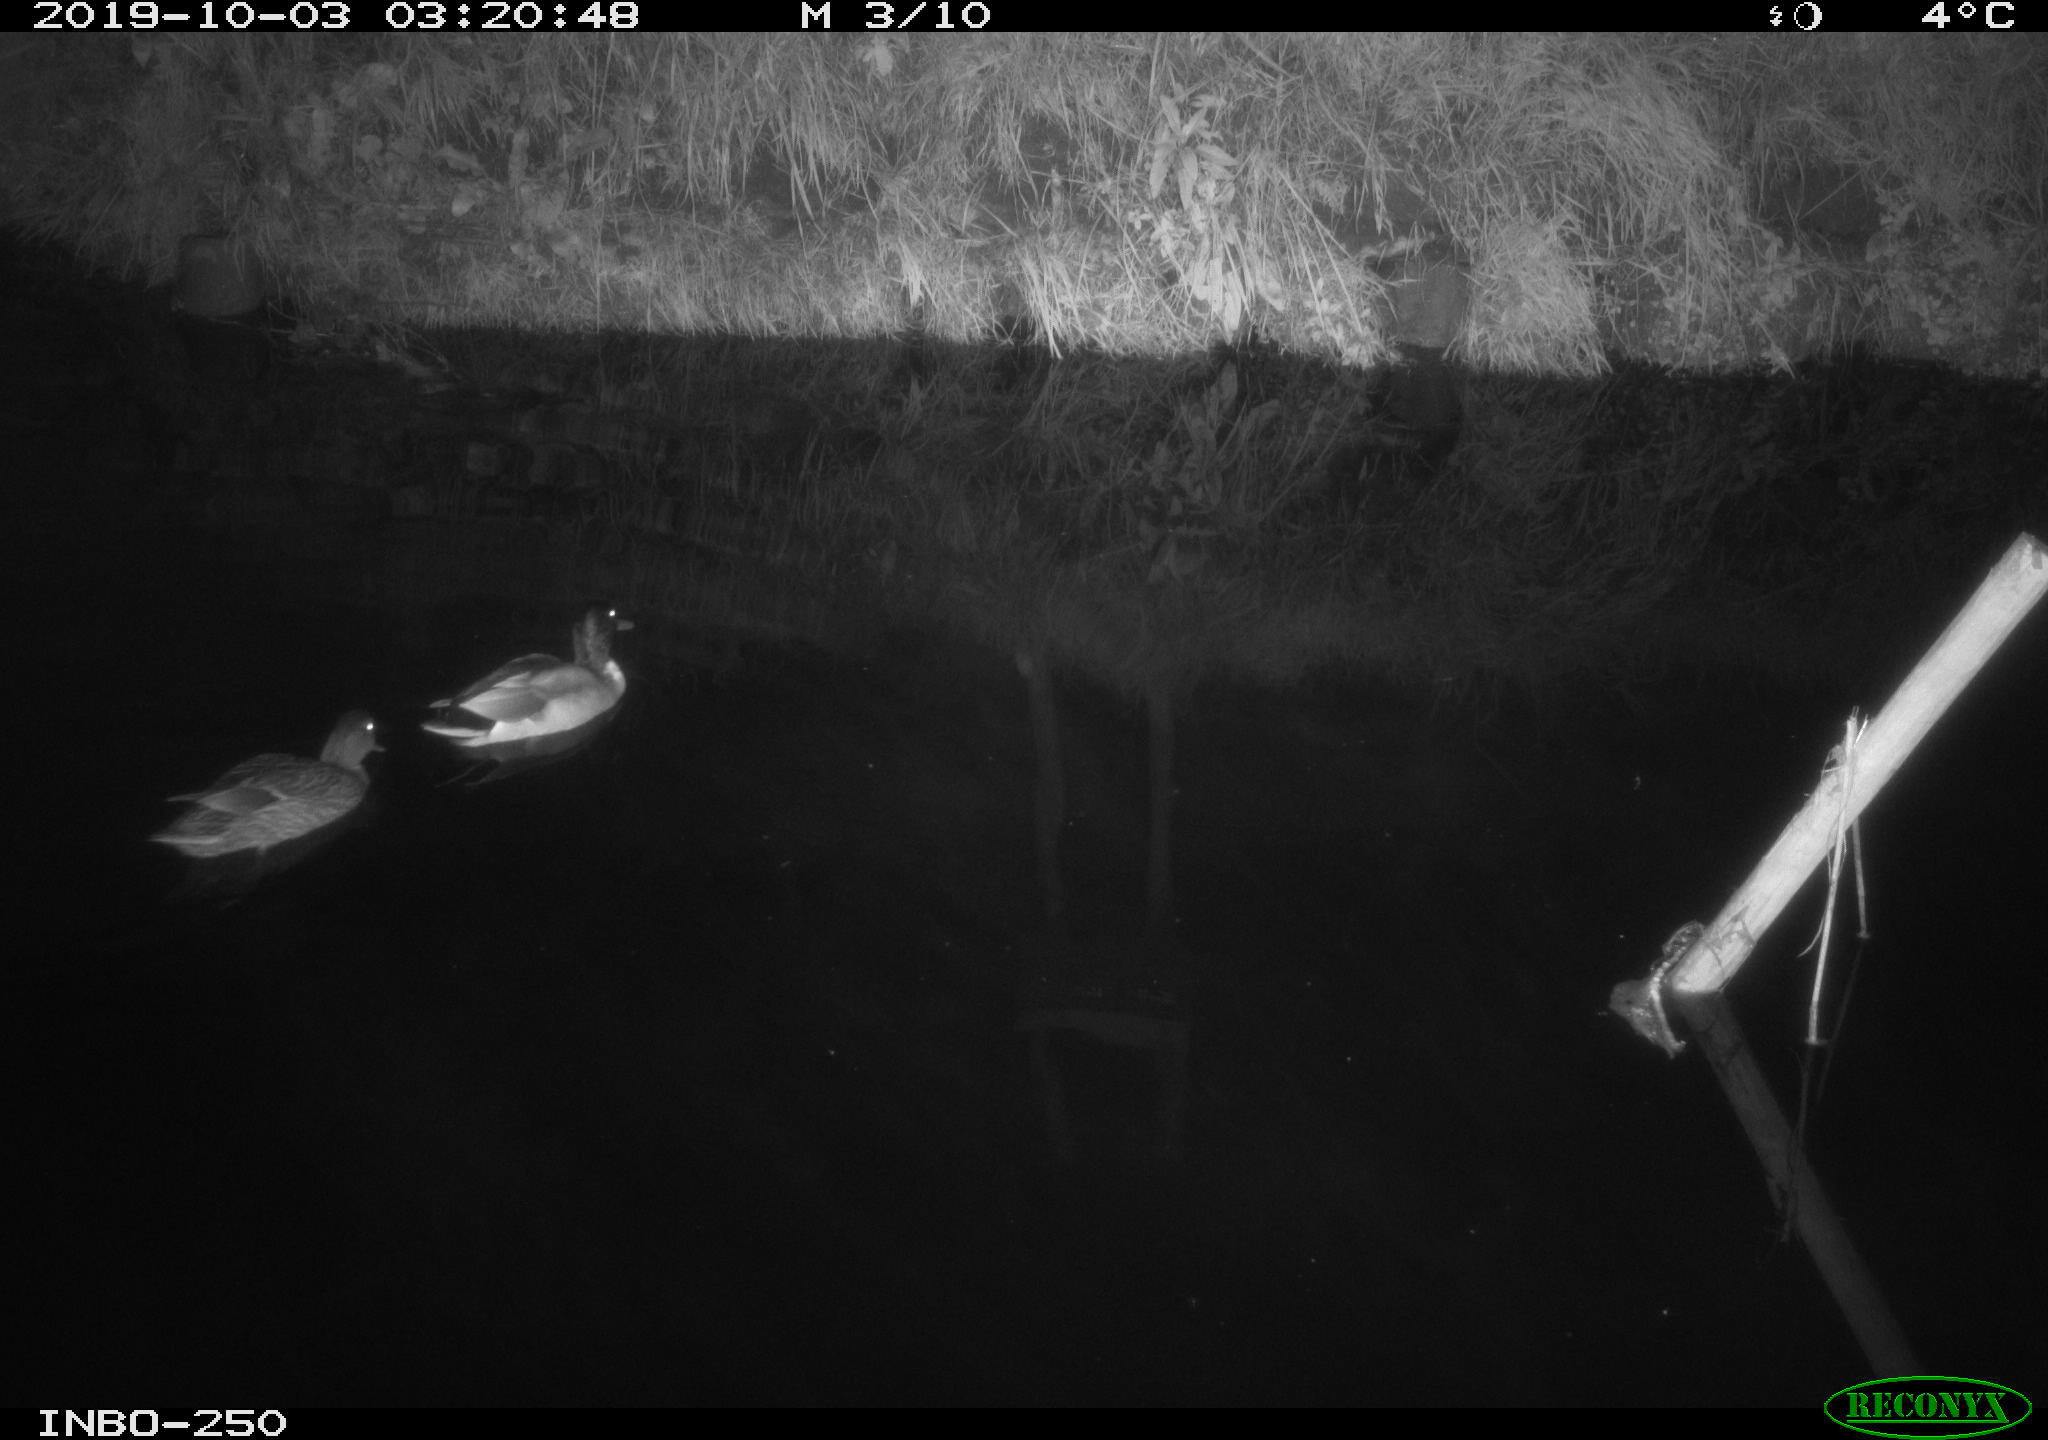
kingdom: Animalia
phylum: Chordata
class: Aves
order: Anseriformes
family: Anatidae
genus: Anas
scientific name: Anas platyrhynchos
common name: Mallard
